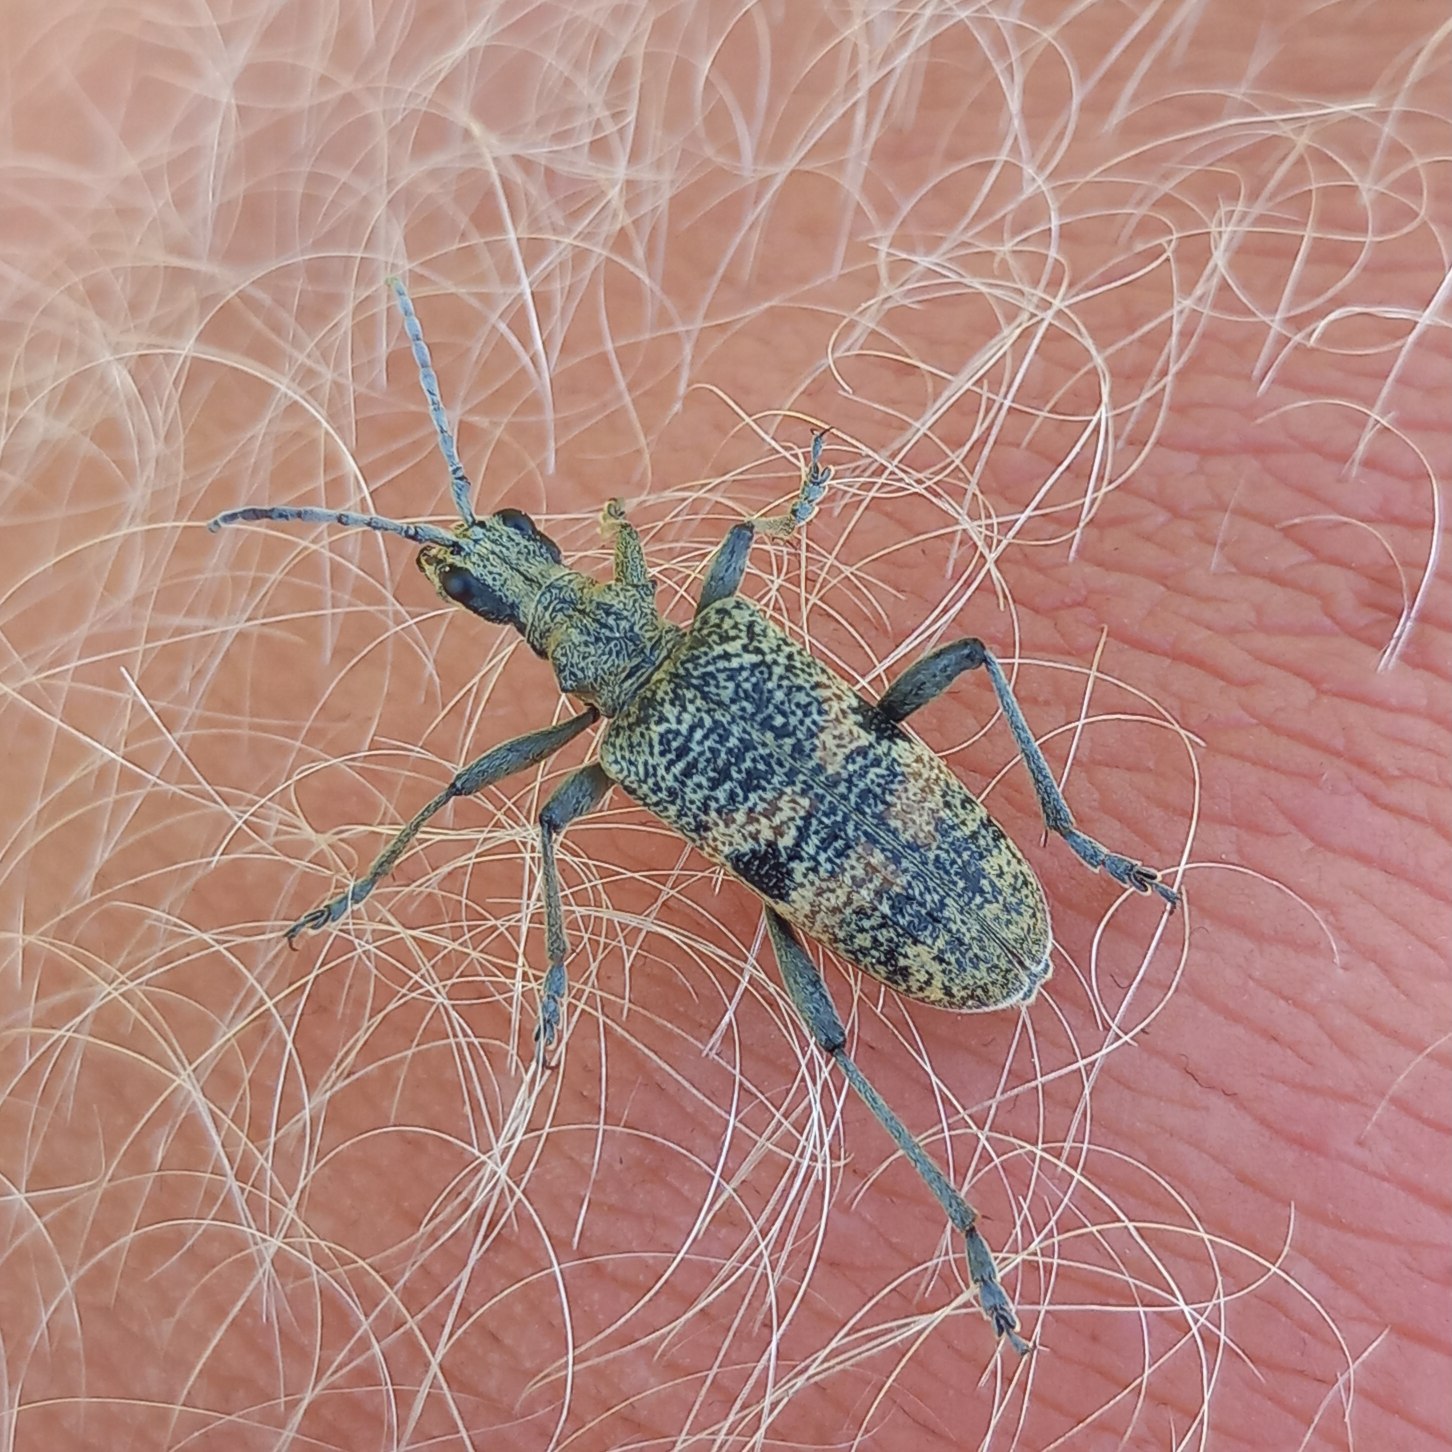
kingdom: Animalia
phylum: Arthropoda
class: Insecta
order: Coleoptera
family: Cerambycidae
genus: Rhagium
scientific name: Rhagium mordax
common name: Blankplettet tandbuk
